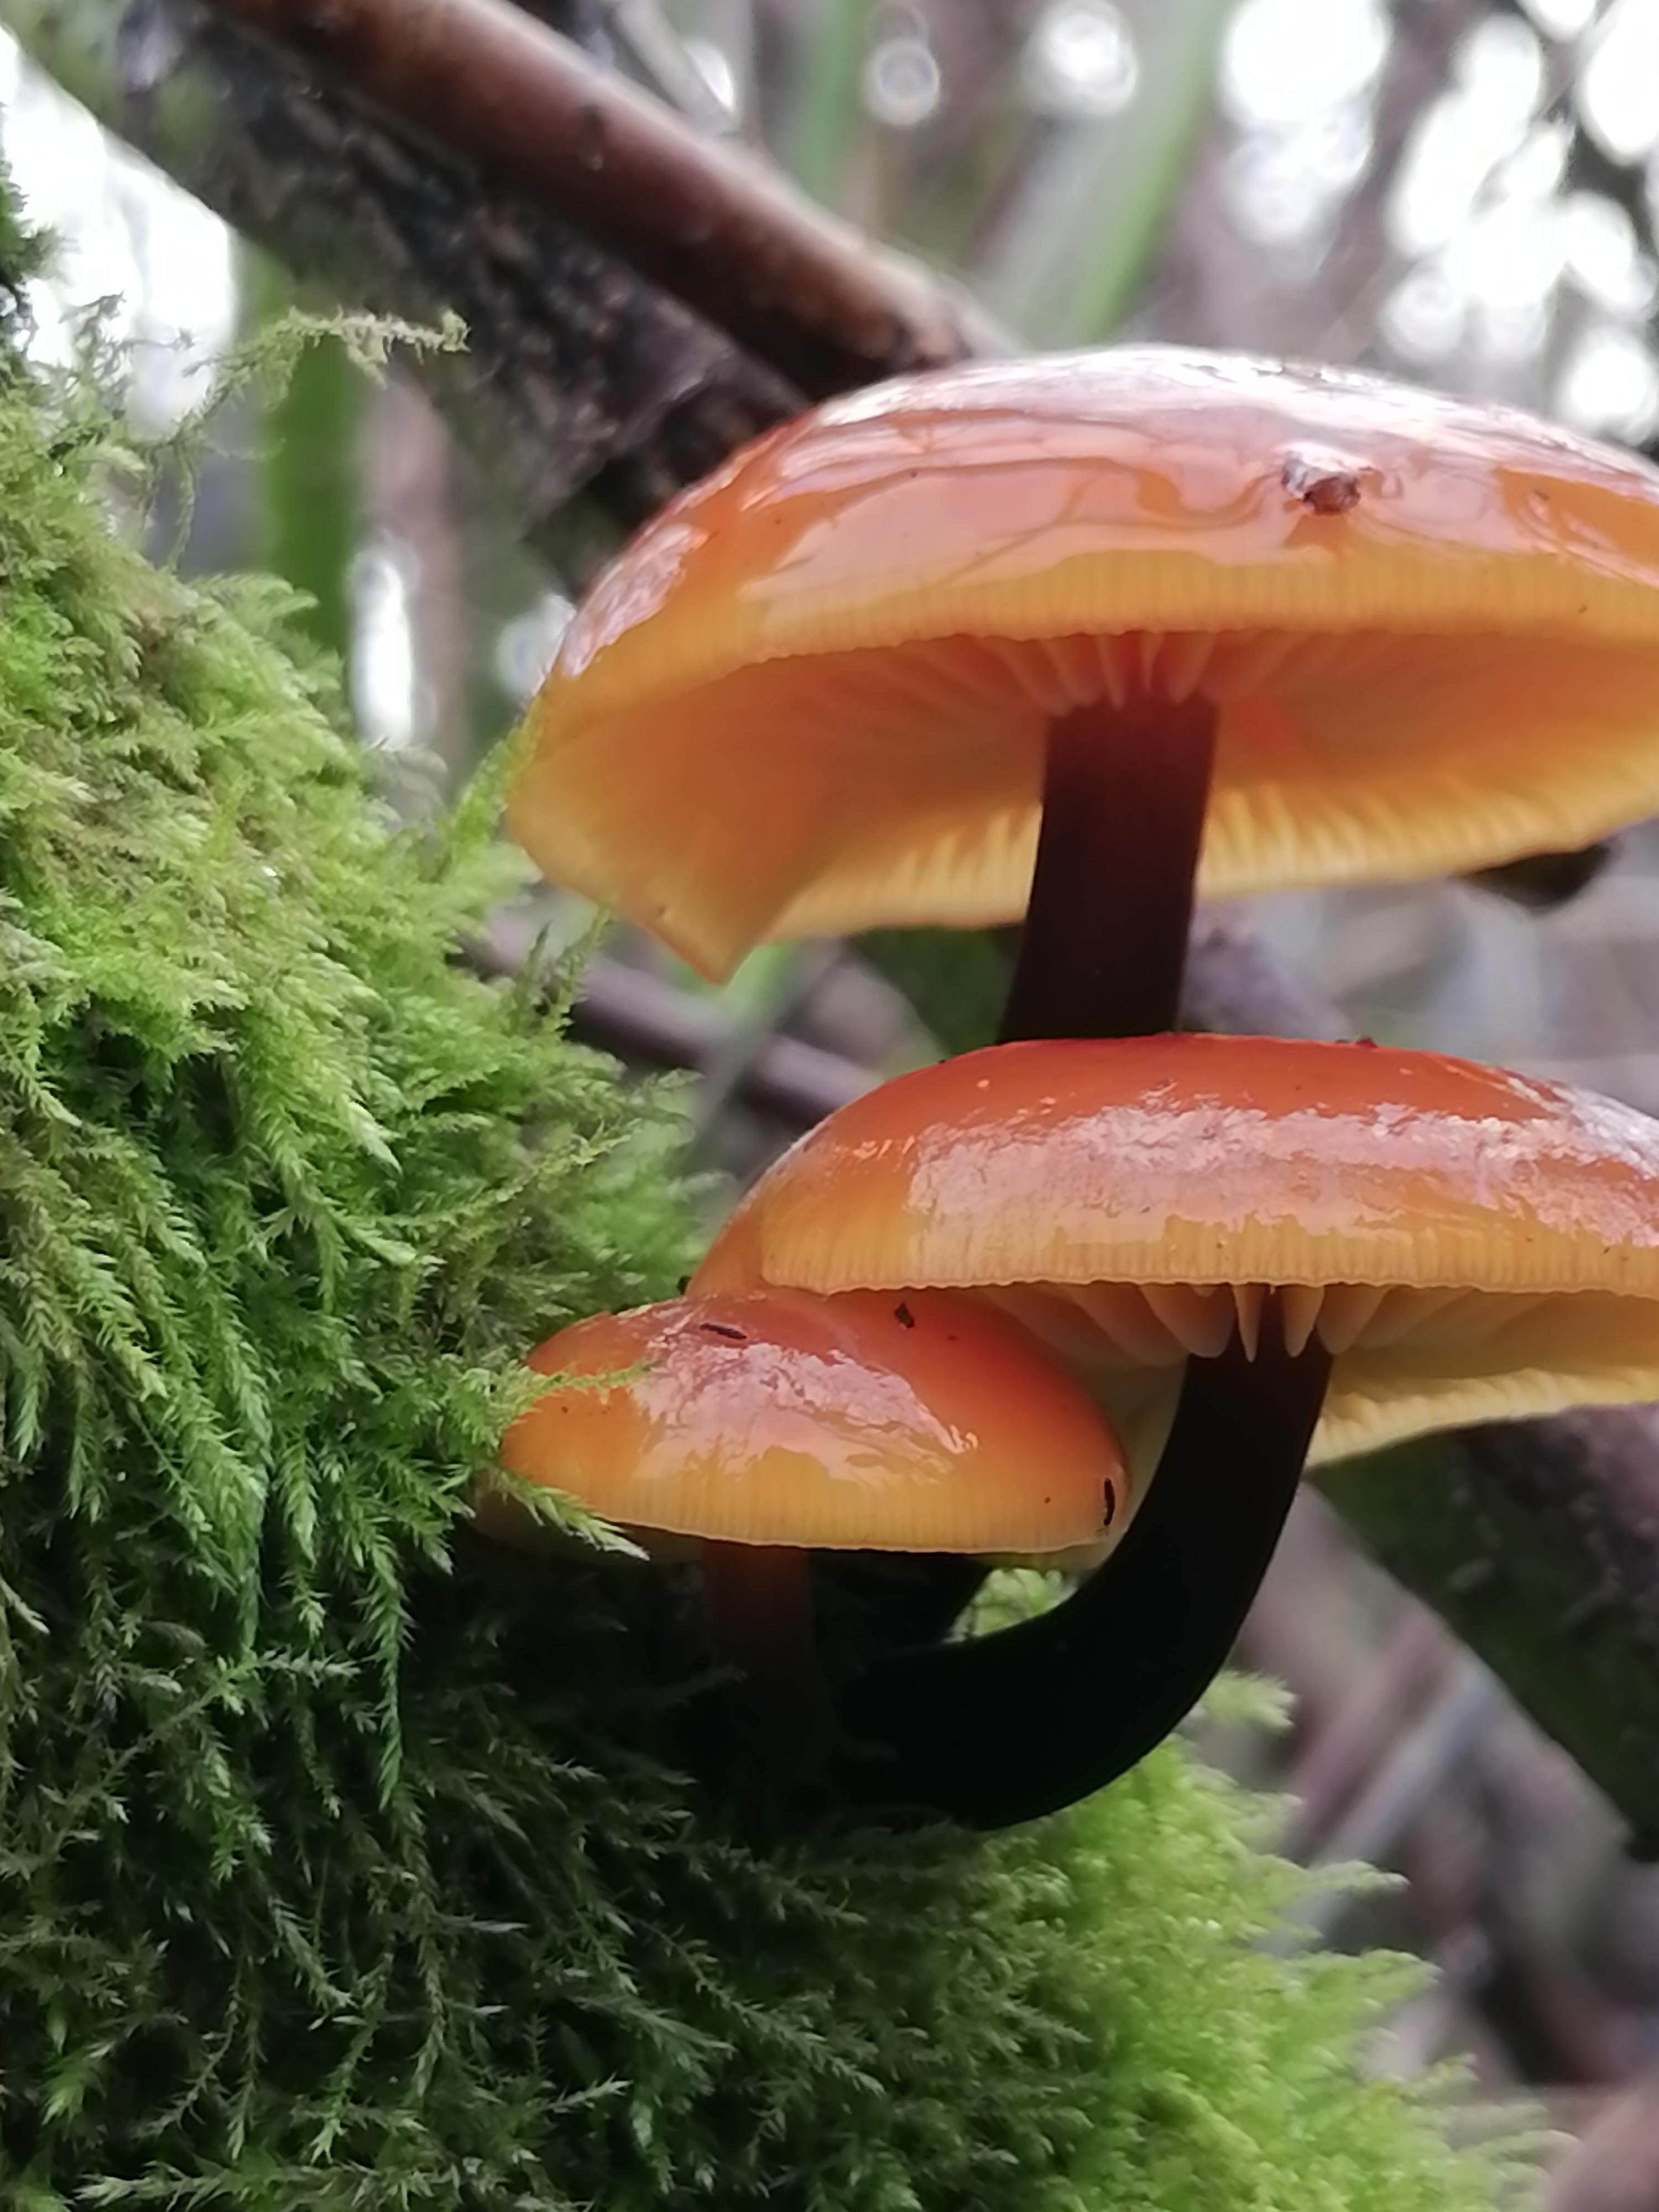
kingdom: Fungi
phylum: Basidiomycota
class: Agaricomycetes
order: Agaricales
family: Physalacriaceae
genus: Flammulina
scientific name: Flammulina
